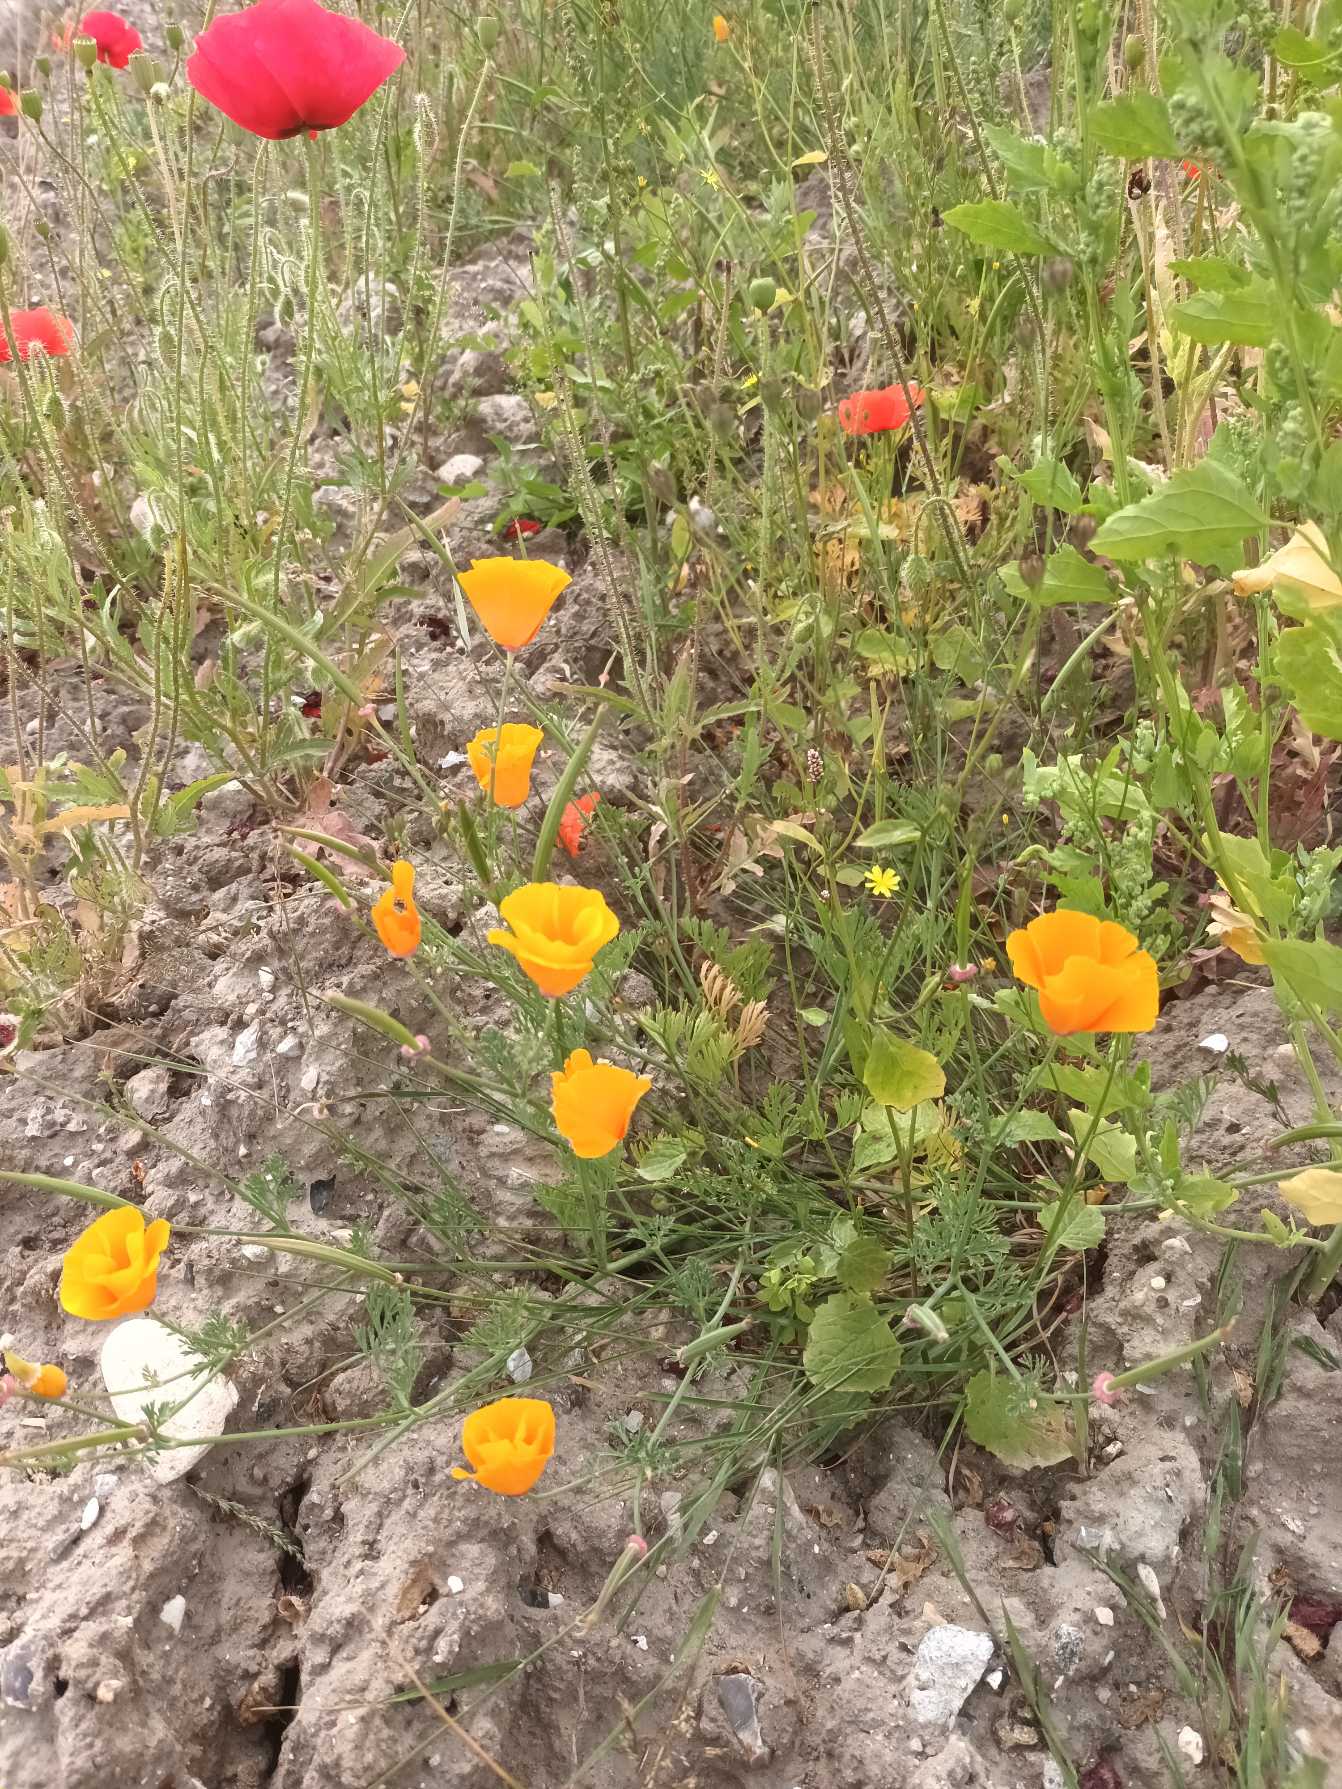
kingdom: Plantae
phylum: Tracheophyta
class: Magnoliopsida
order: Ranunculales
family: Papaveraceae
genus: Eschscholzia
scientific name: Eschscholzia californica
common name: Guldvalmue
